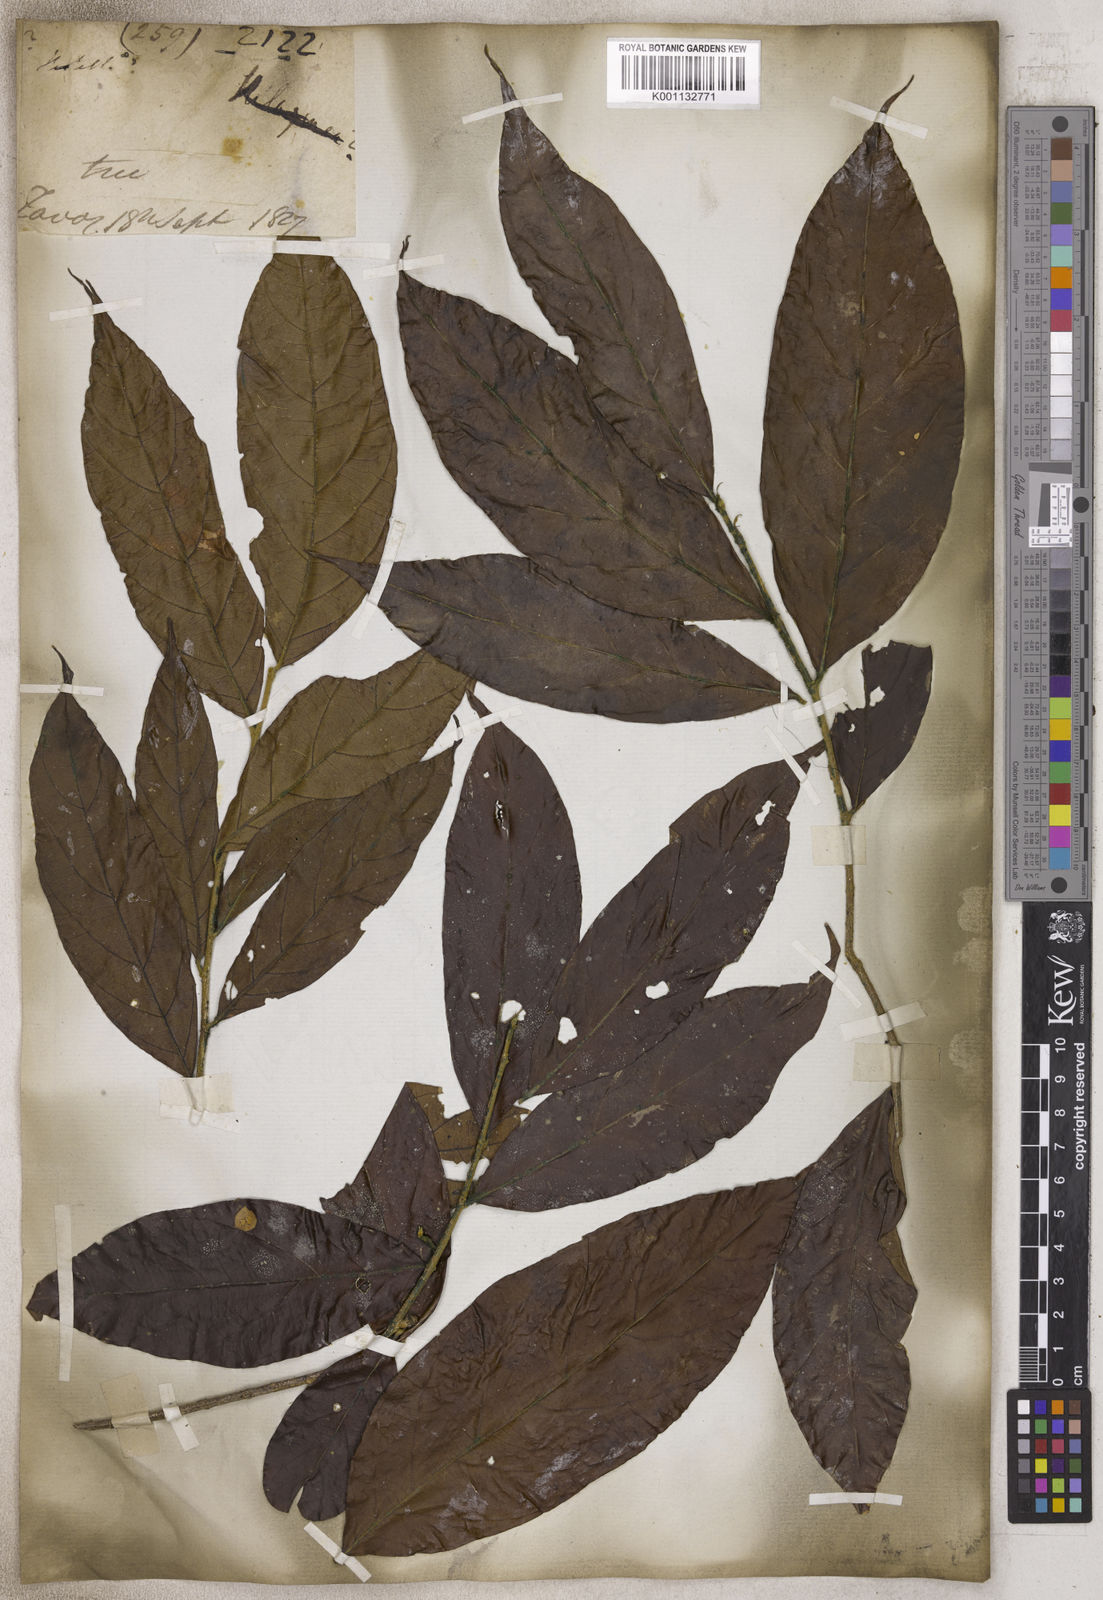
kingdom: Plantae
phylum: Tracheophyta
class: Magnoliopsida
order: Malpighiales
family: Chrysobalanaceae
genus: Hirtella
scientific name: Hirtella
